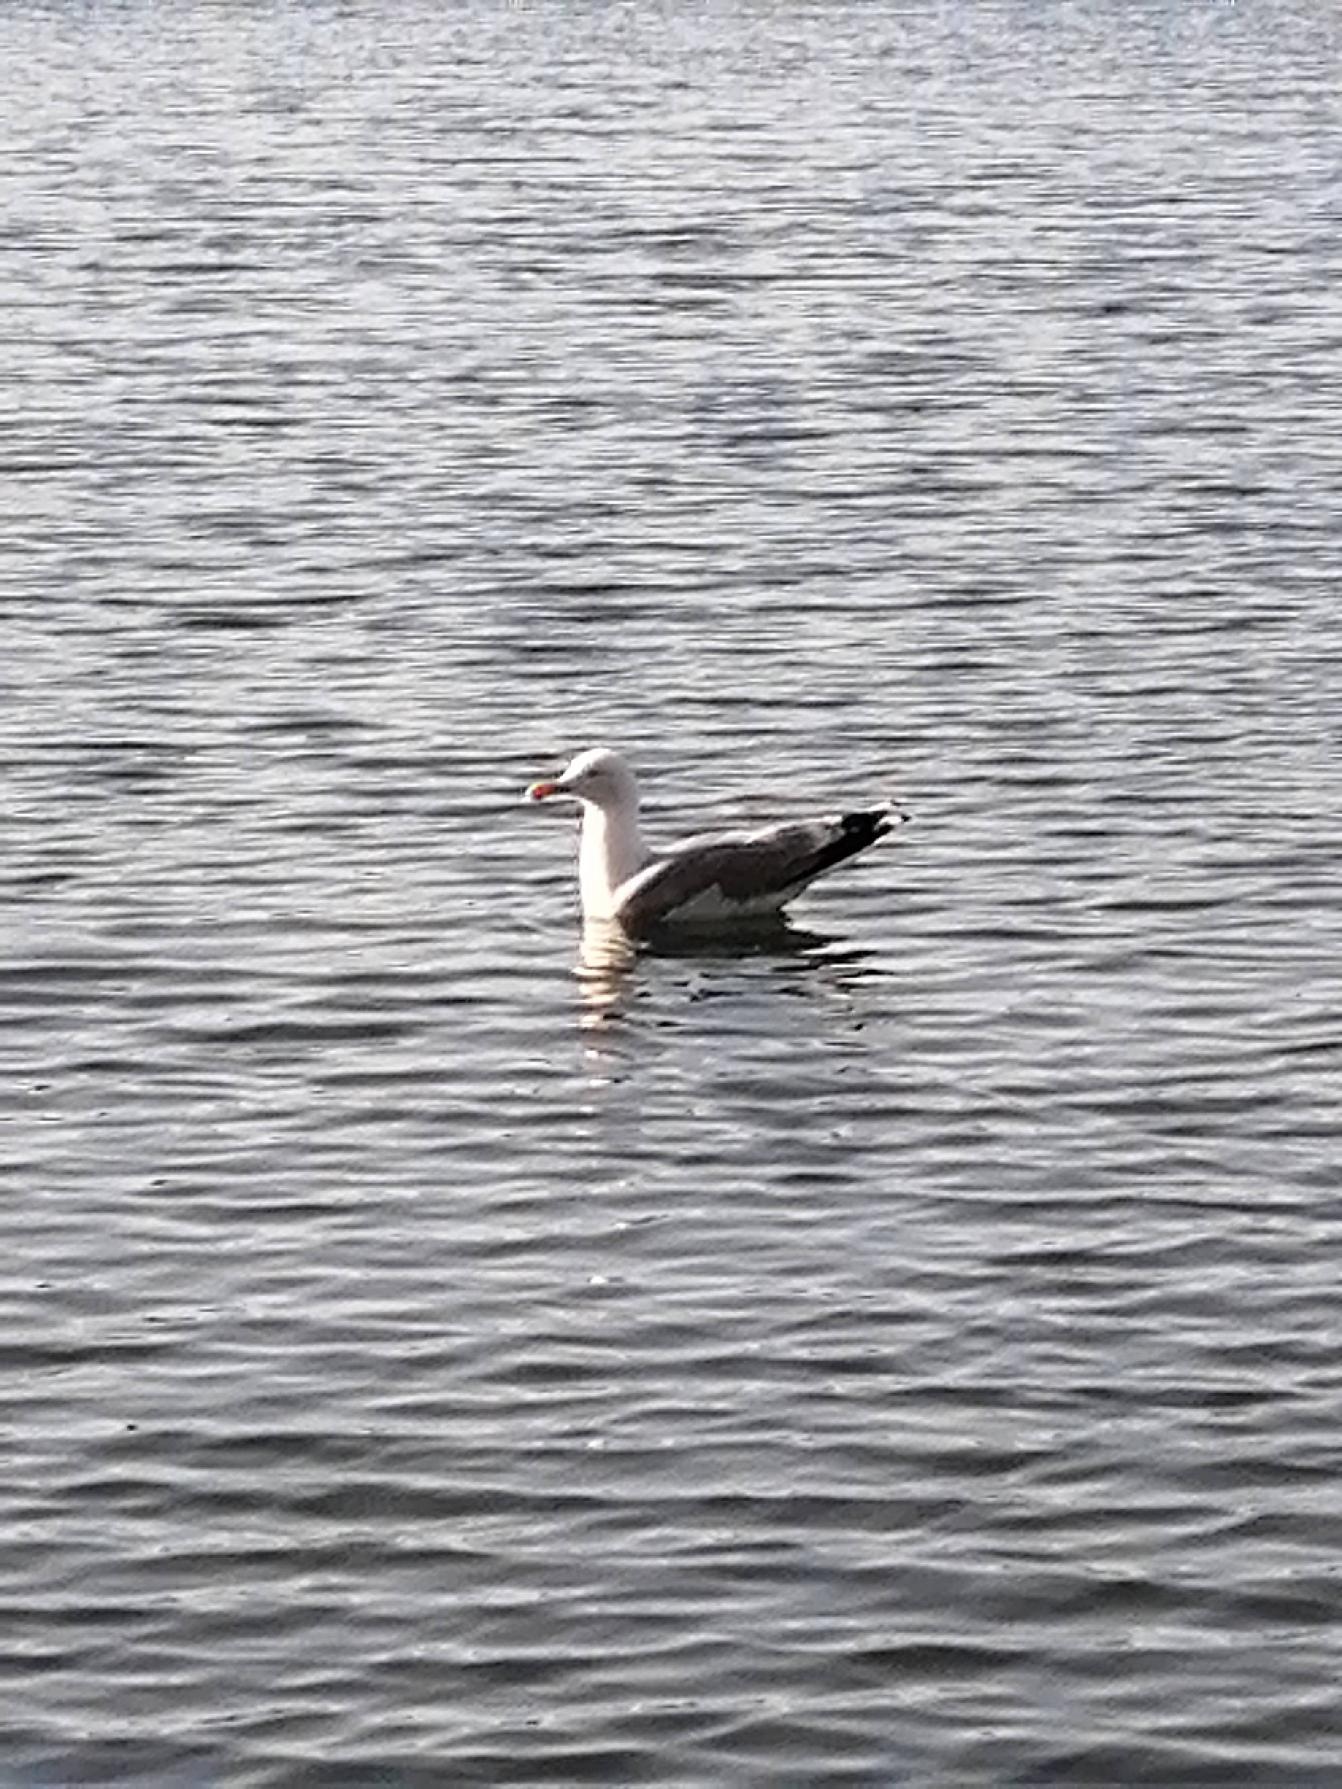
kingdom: Animalia
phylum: Chordata
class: Aves
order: Charadriiformes
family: Laridae
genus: Larus
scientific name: Larus argentatus
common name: Sølvmåge
